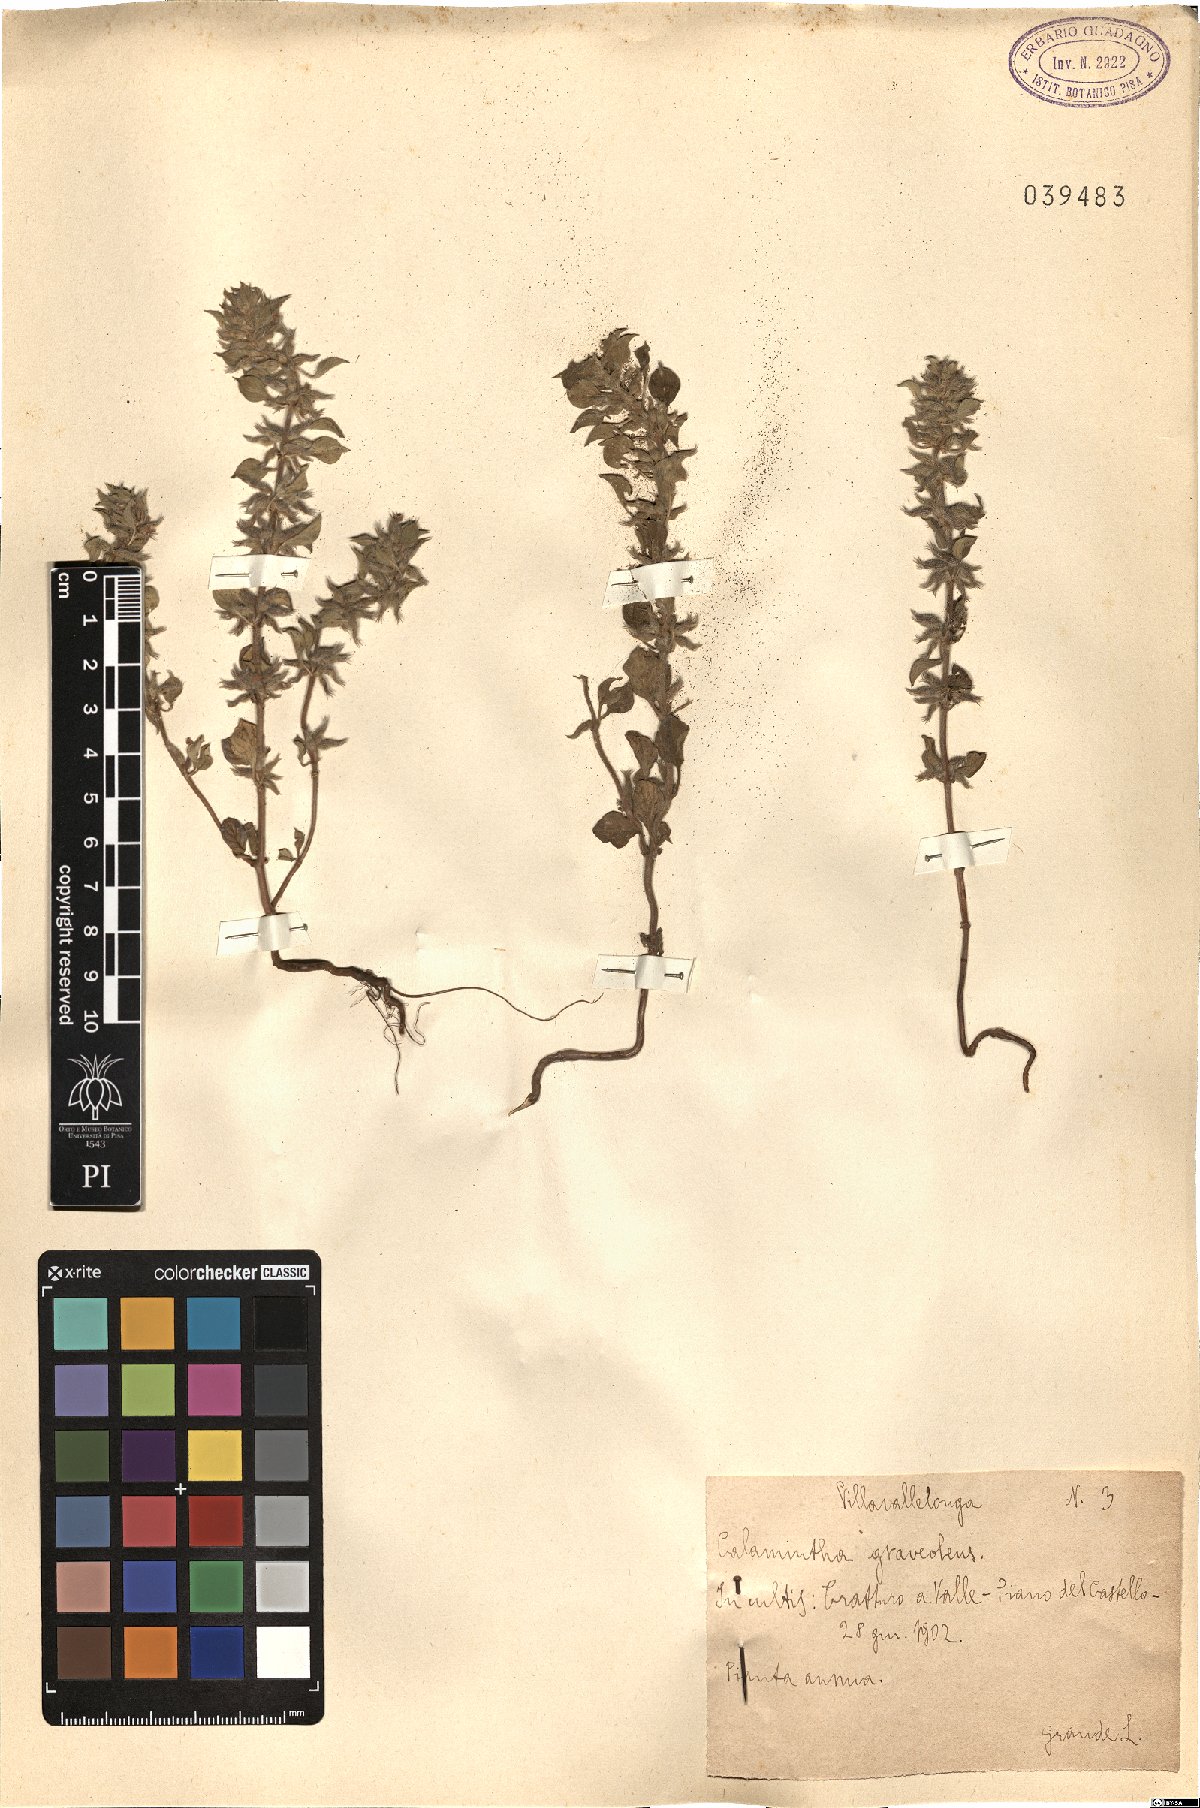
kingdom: Plantae
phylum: Tracheophyta
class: Magnoliopsida
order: Lamiales
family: Lamiaceae
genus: Clinopodium
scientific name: Clinopodium graveolens
